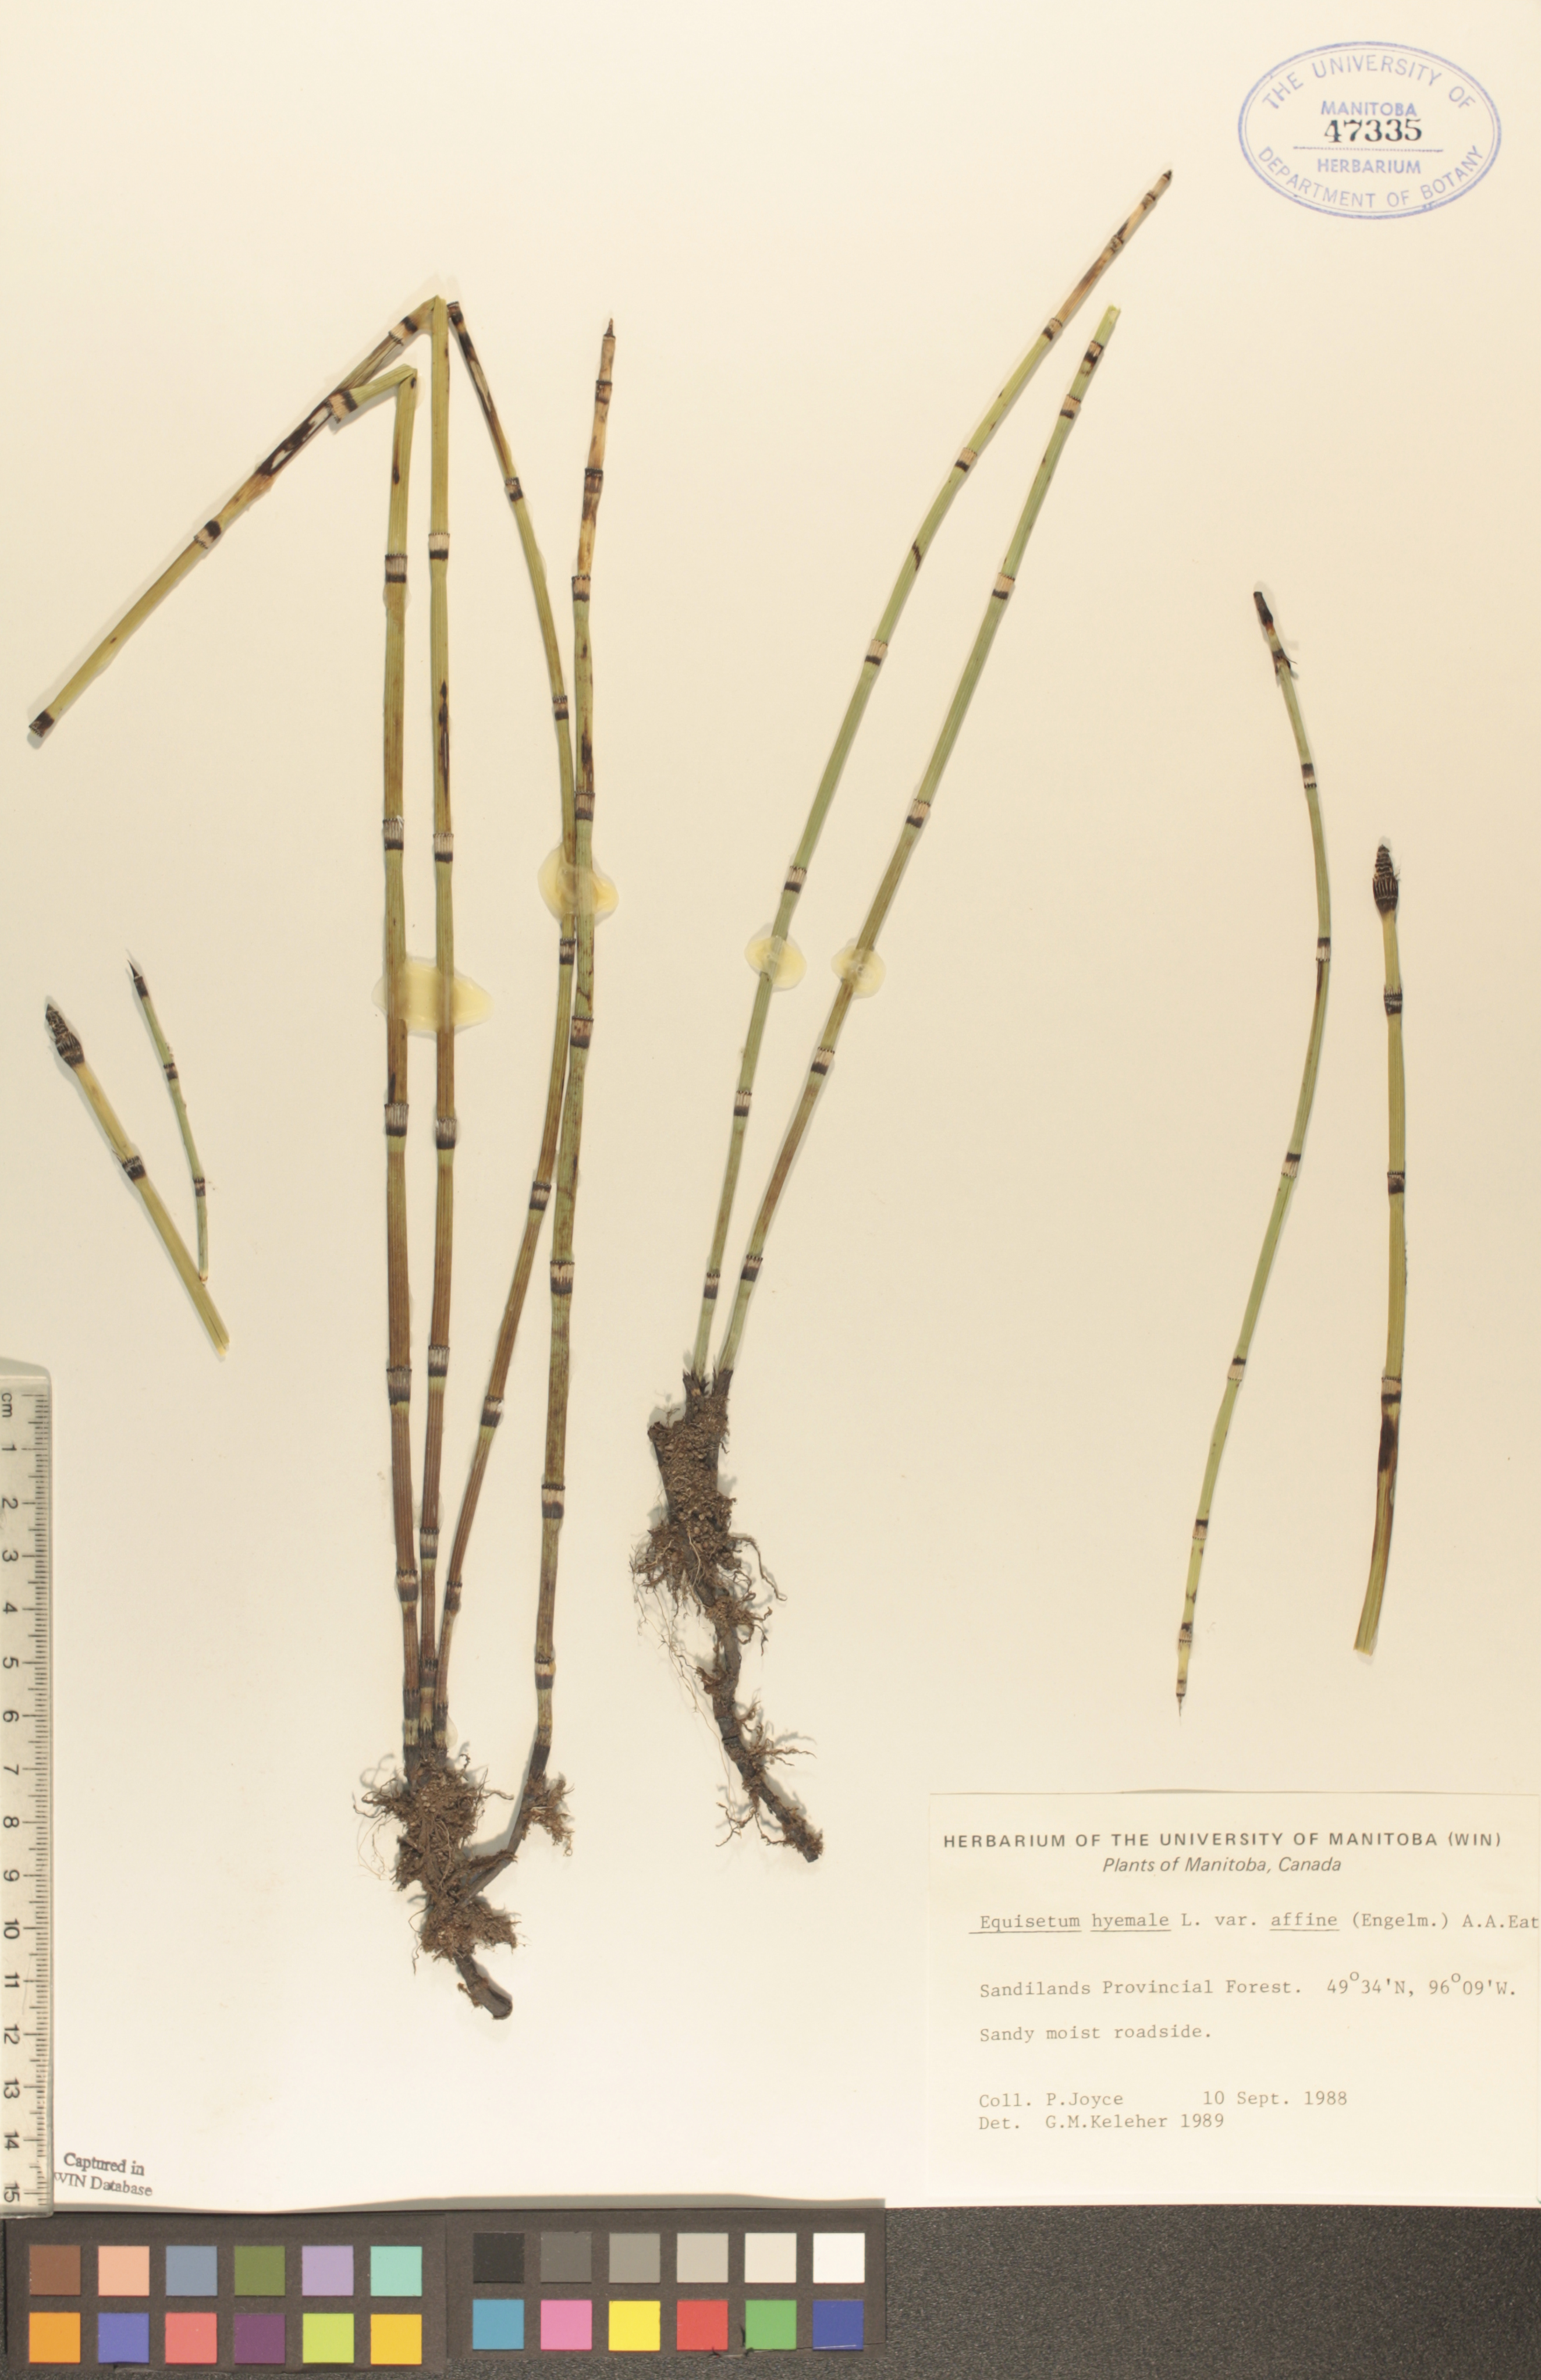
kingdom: Plantae
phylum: Tracheophyta
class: Polypodiopsida
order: Equisetales
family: Equisetaceae
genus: Equisetum
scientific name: Equisetum praealtum
